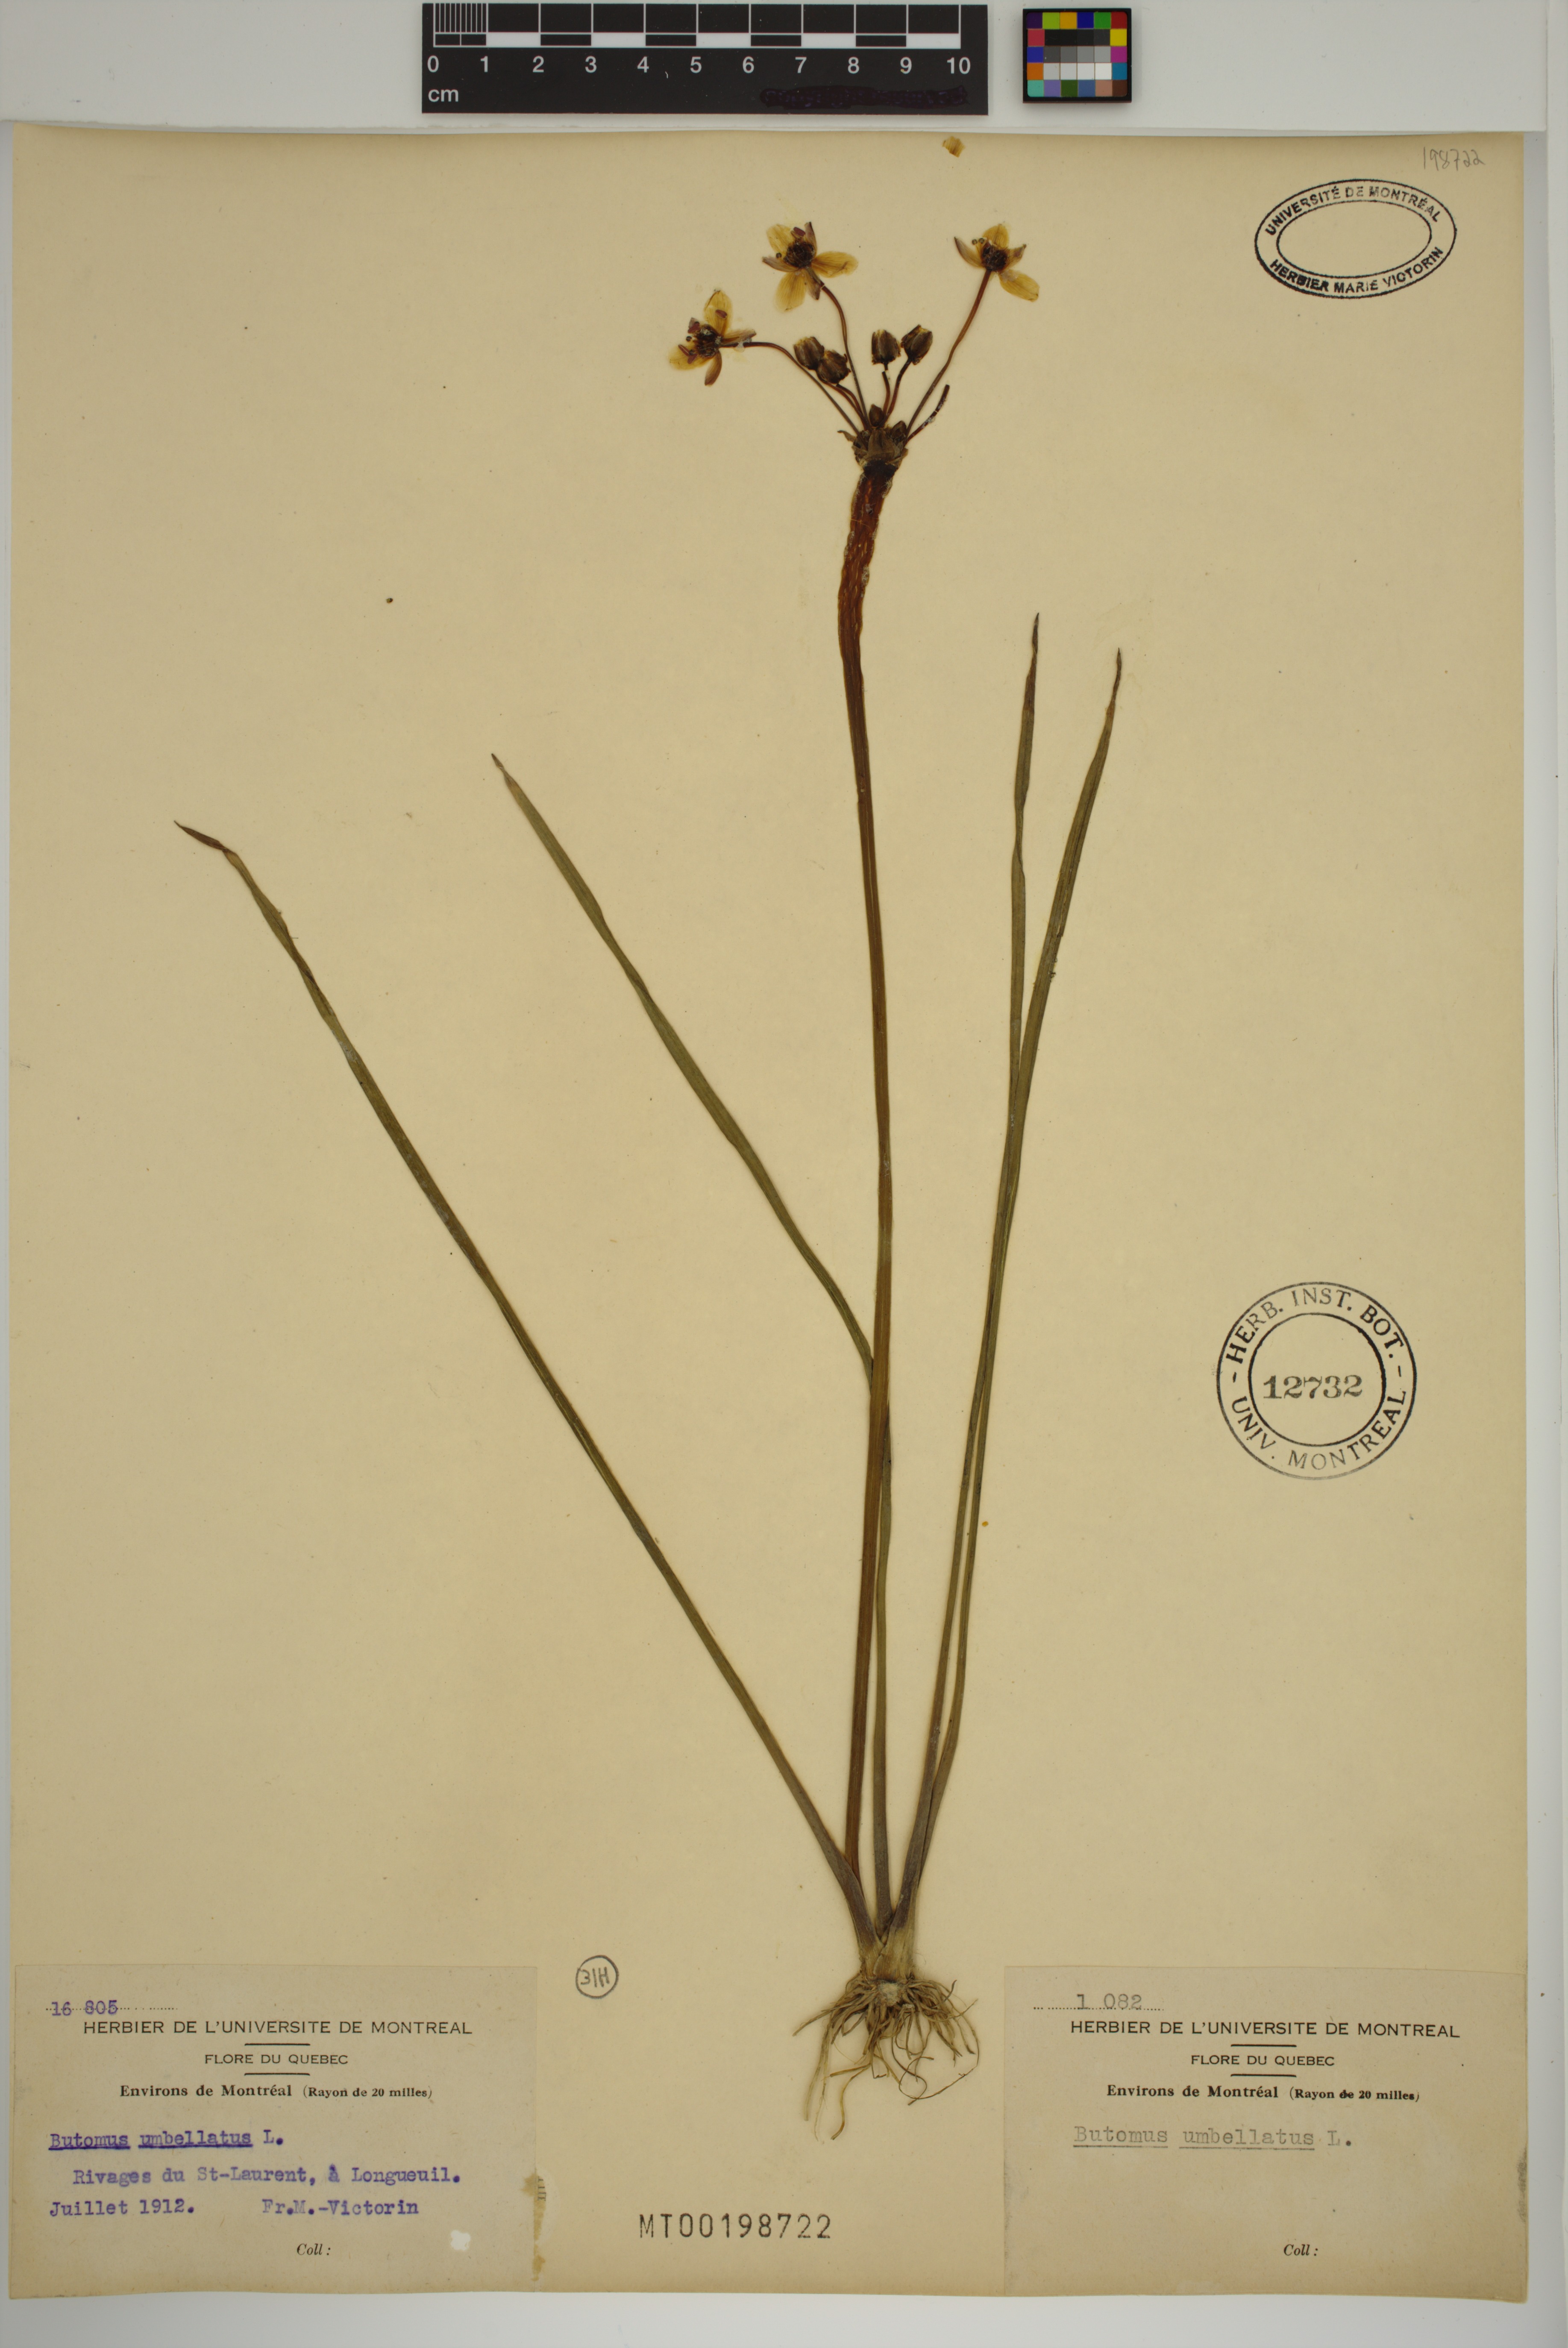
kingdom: Plantae
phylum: Tracheophyta
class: Liliopsida
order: Alismatales
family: Butomaceae
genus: Butomus
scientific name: Butomus umbellatus
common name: Flowering-rush
